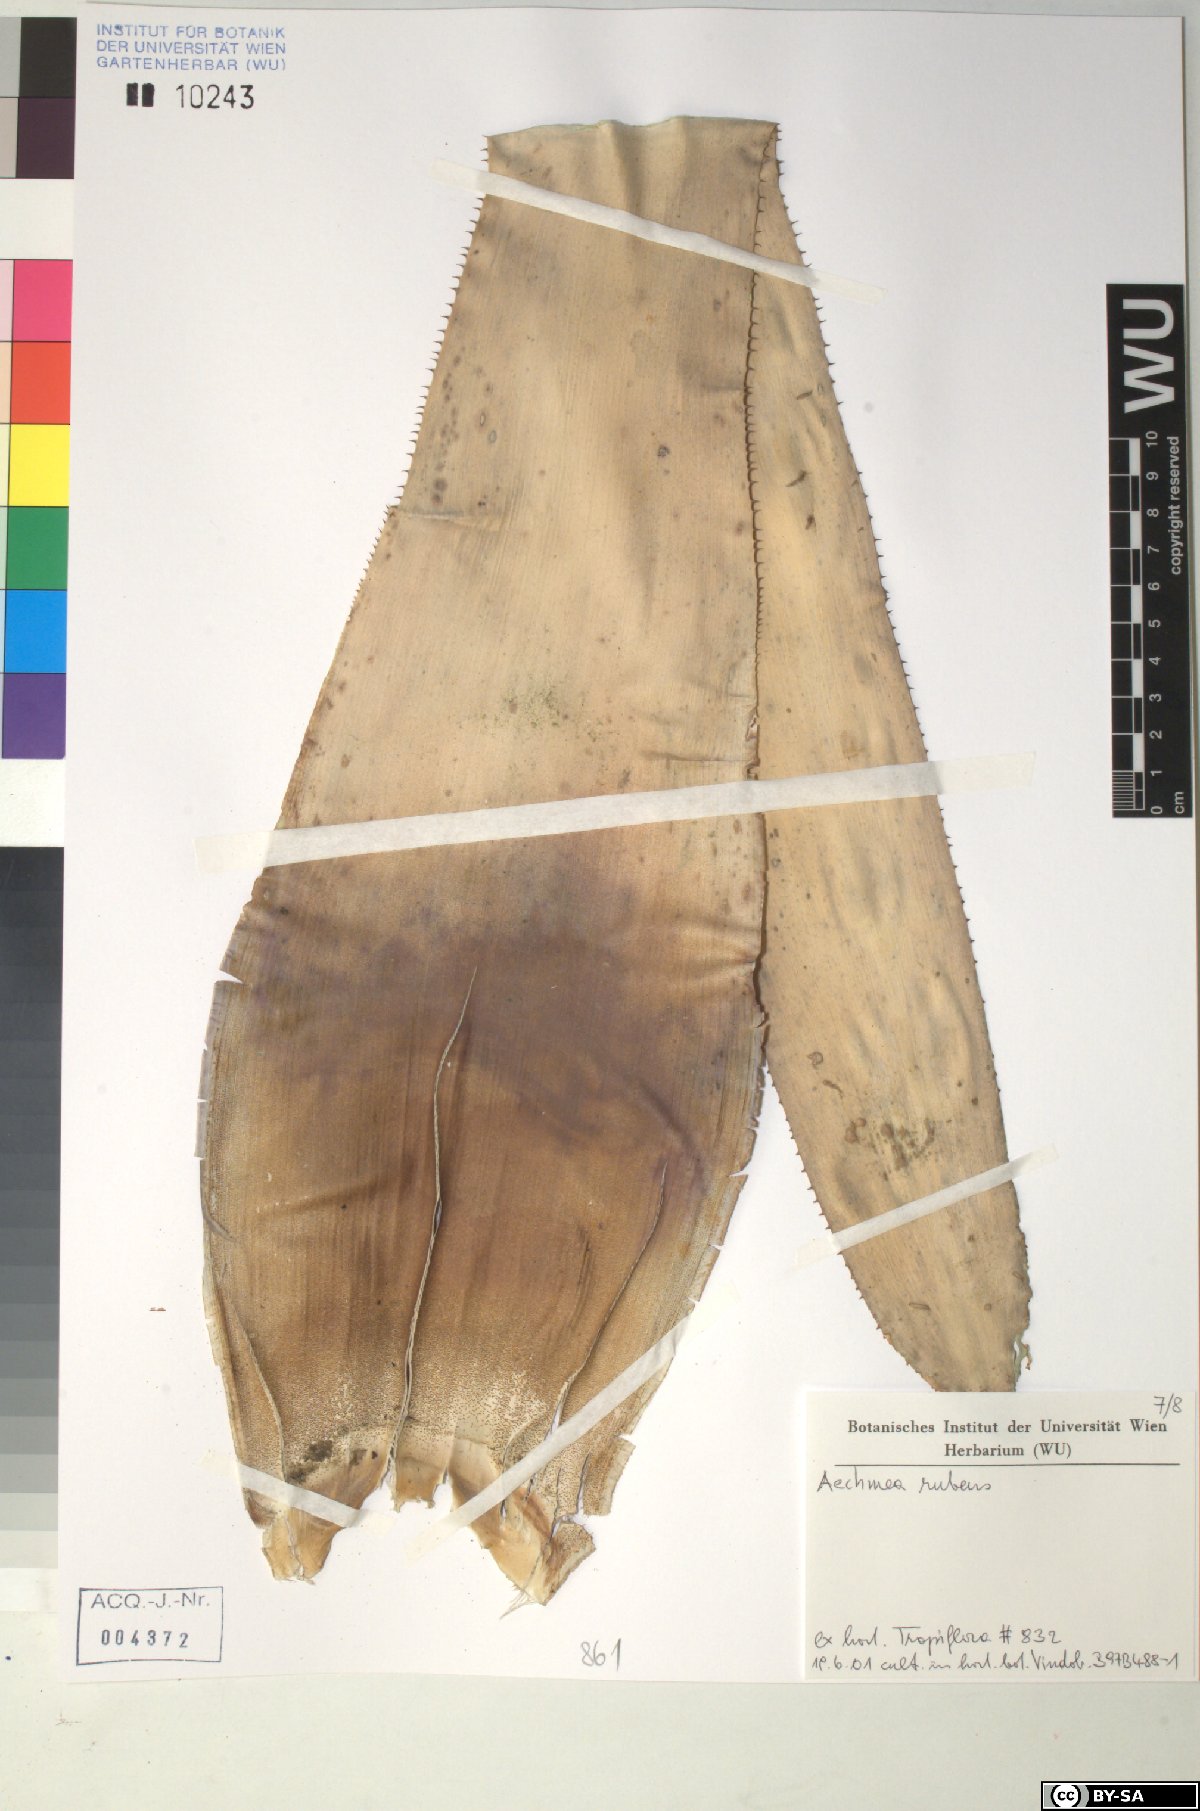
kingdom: Plantae
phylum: Tracheophyta
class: Liliopsida
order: Poales
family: Bromeliaceae
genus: Aechmea
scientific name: Aechmea rubens
